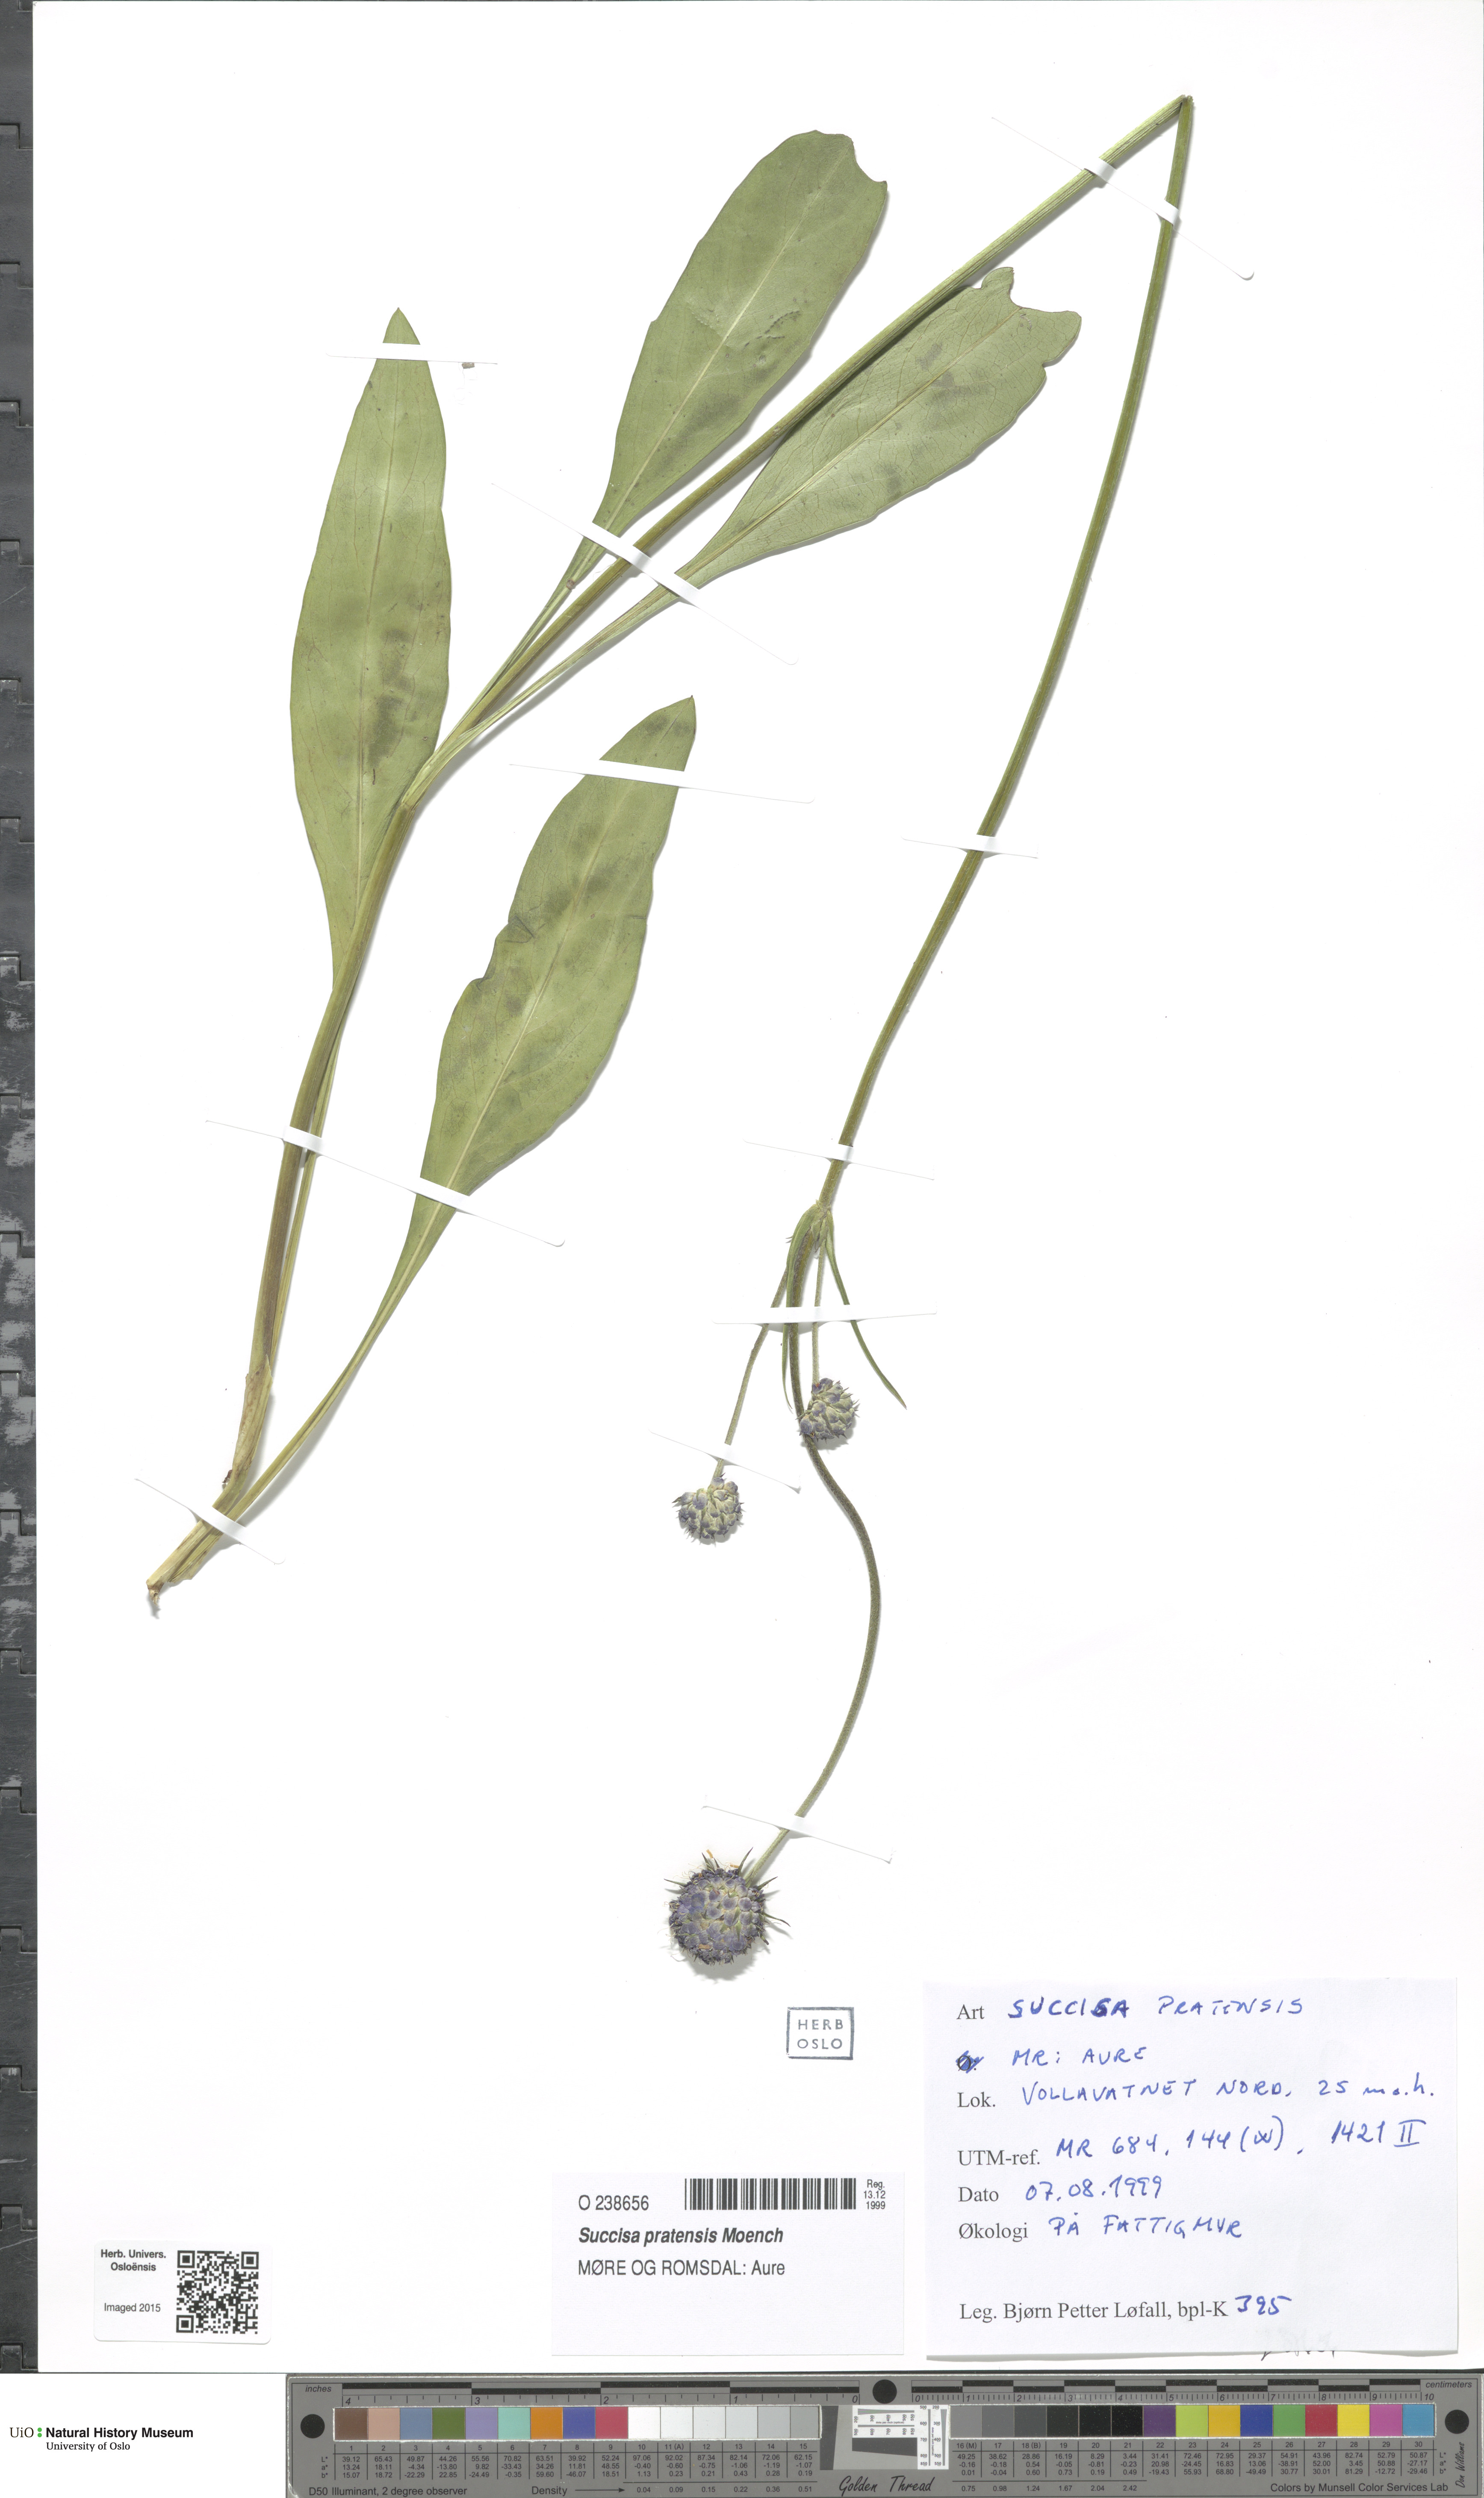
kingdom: Plantae
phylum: Tracheophyta
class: Magnoliopsida
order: Dipsacales
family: Caprifoliaceae
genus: Succisa
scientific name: Succisa pratensis
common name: Devil's-bit
